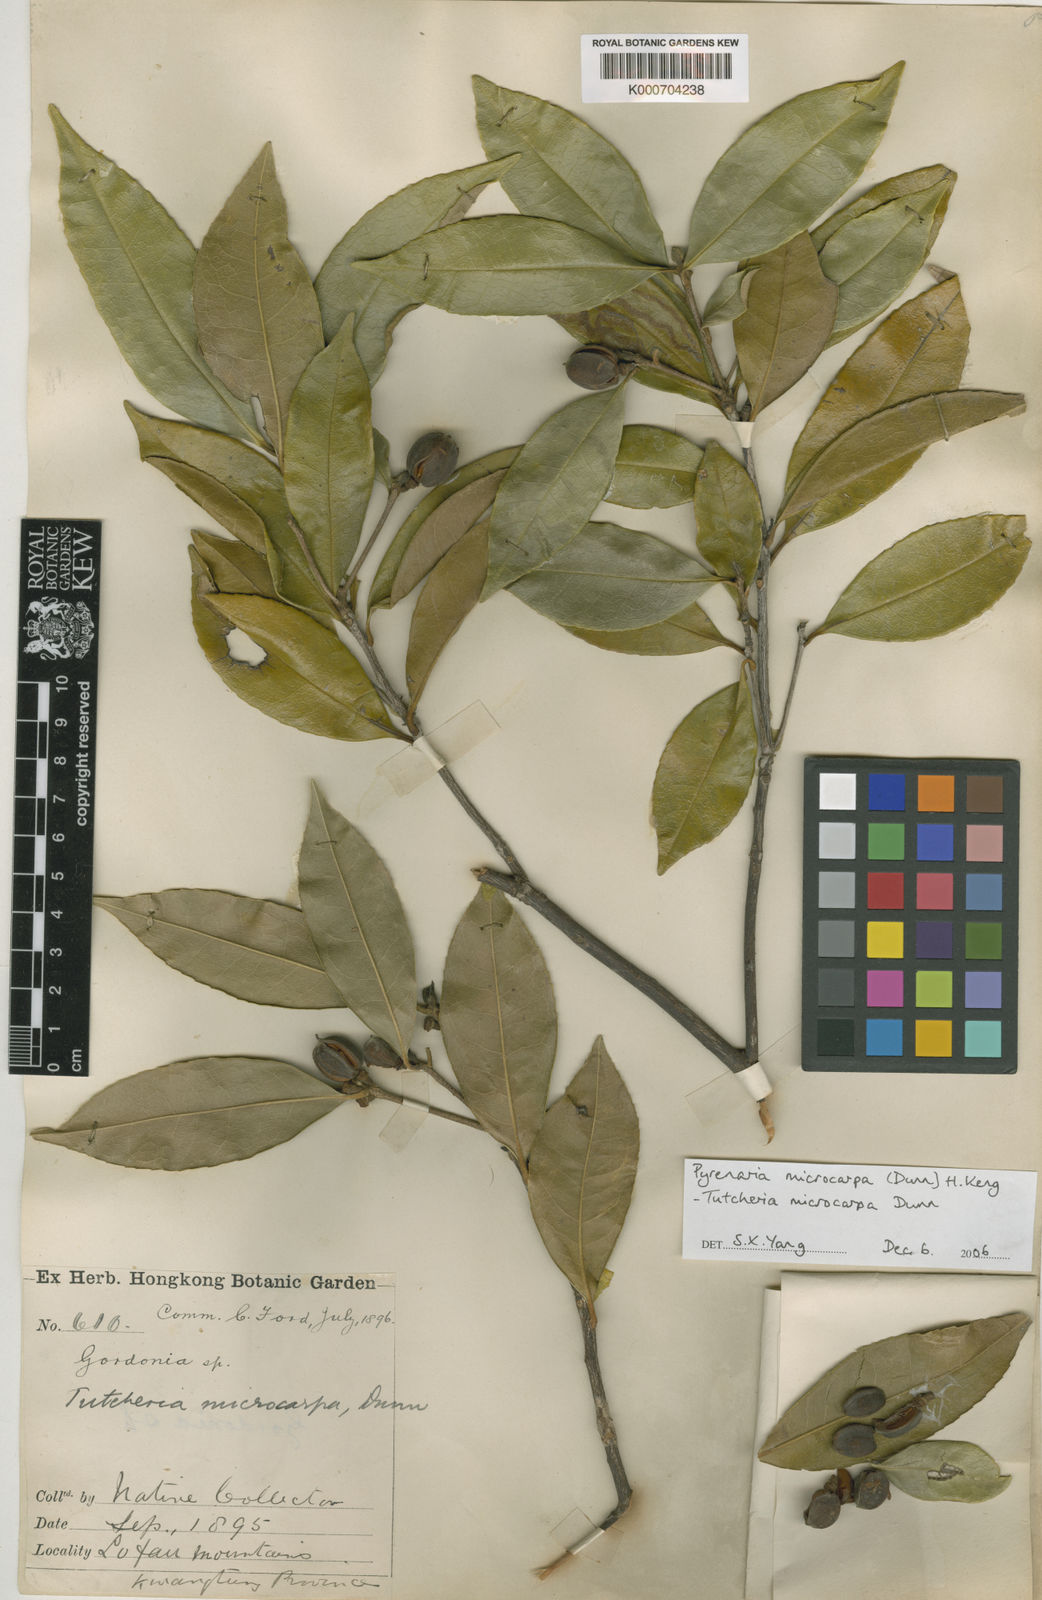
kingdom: Plantae
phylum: Tracheophyta
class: Magnoliopsida
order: Ericales
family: Theaceae
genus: Pyrenaria
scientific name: Pyrenaria microcarpa
